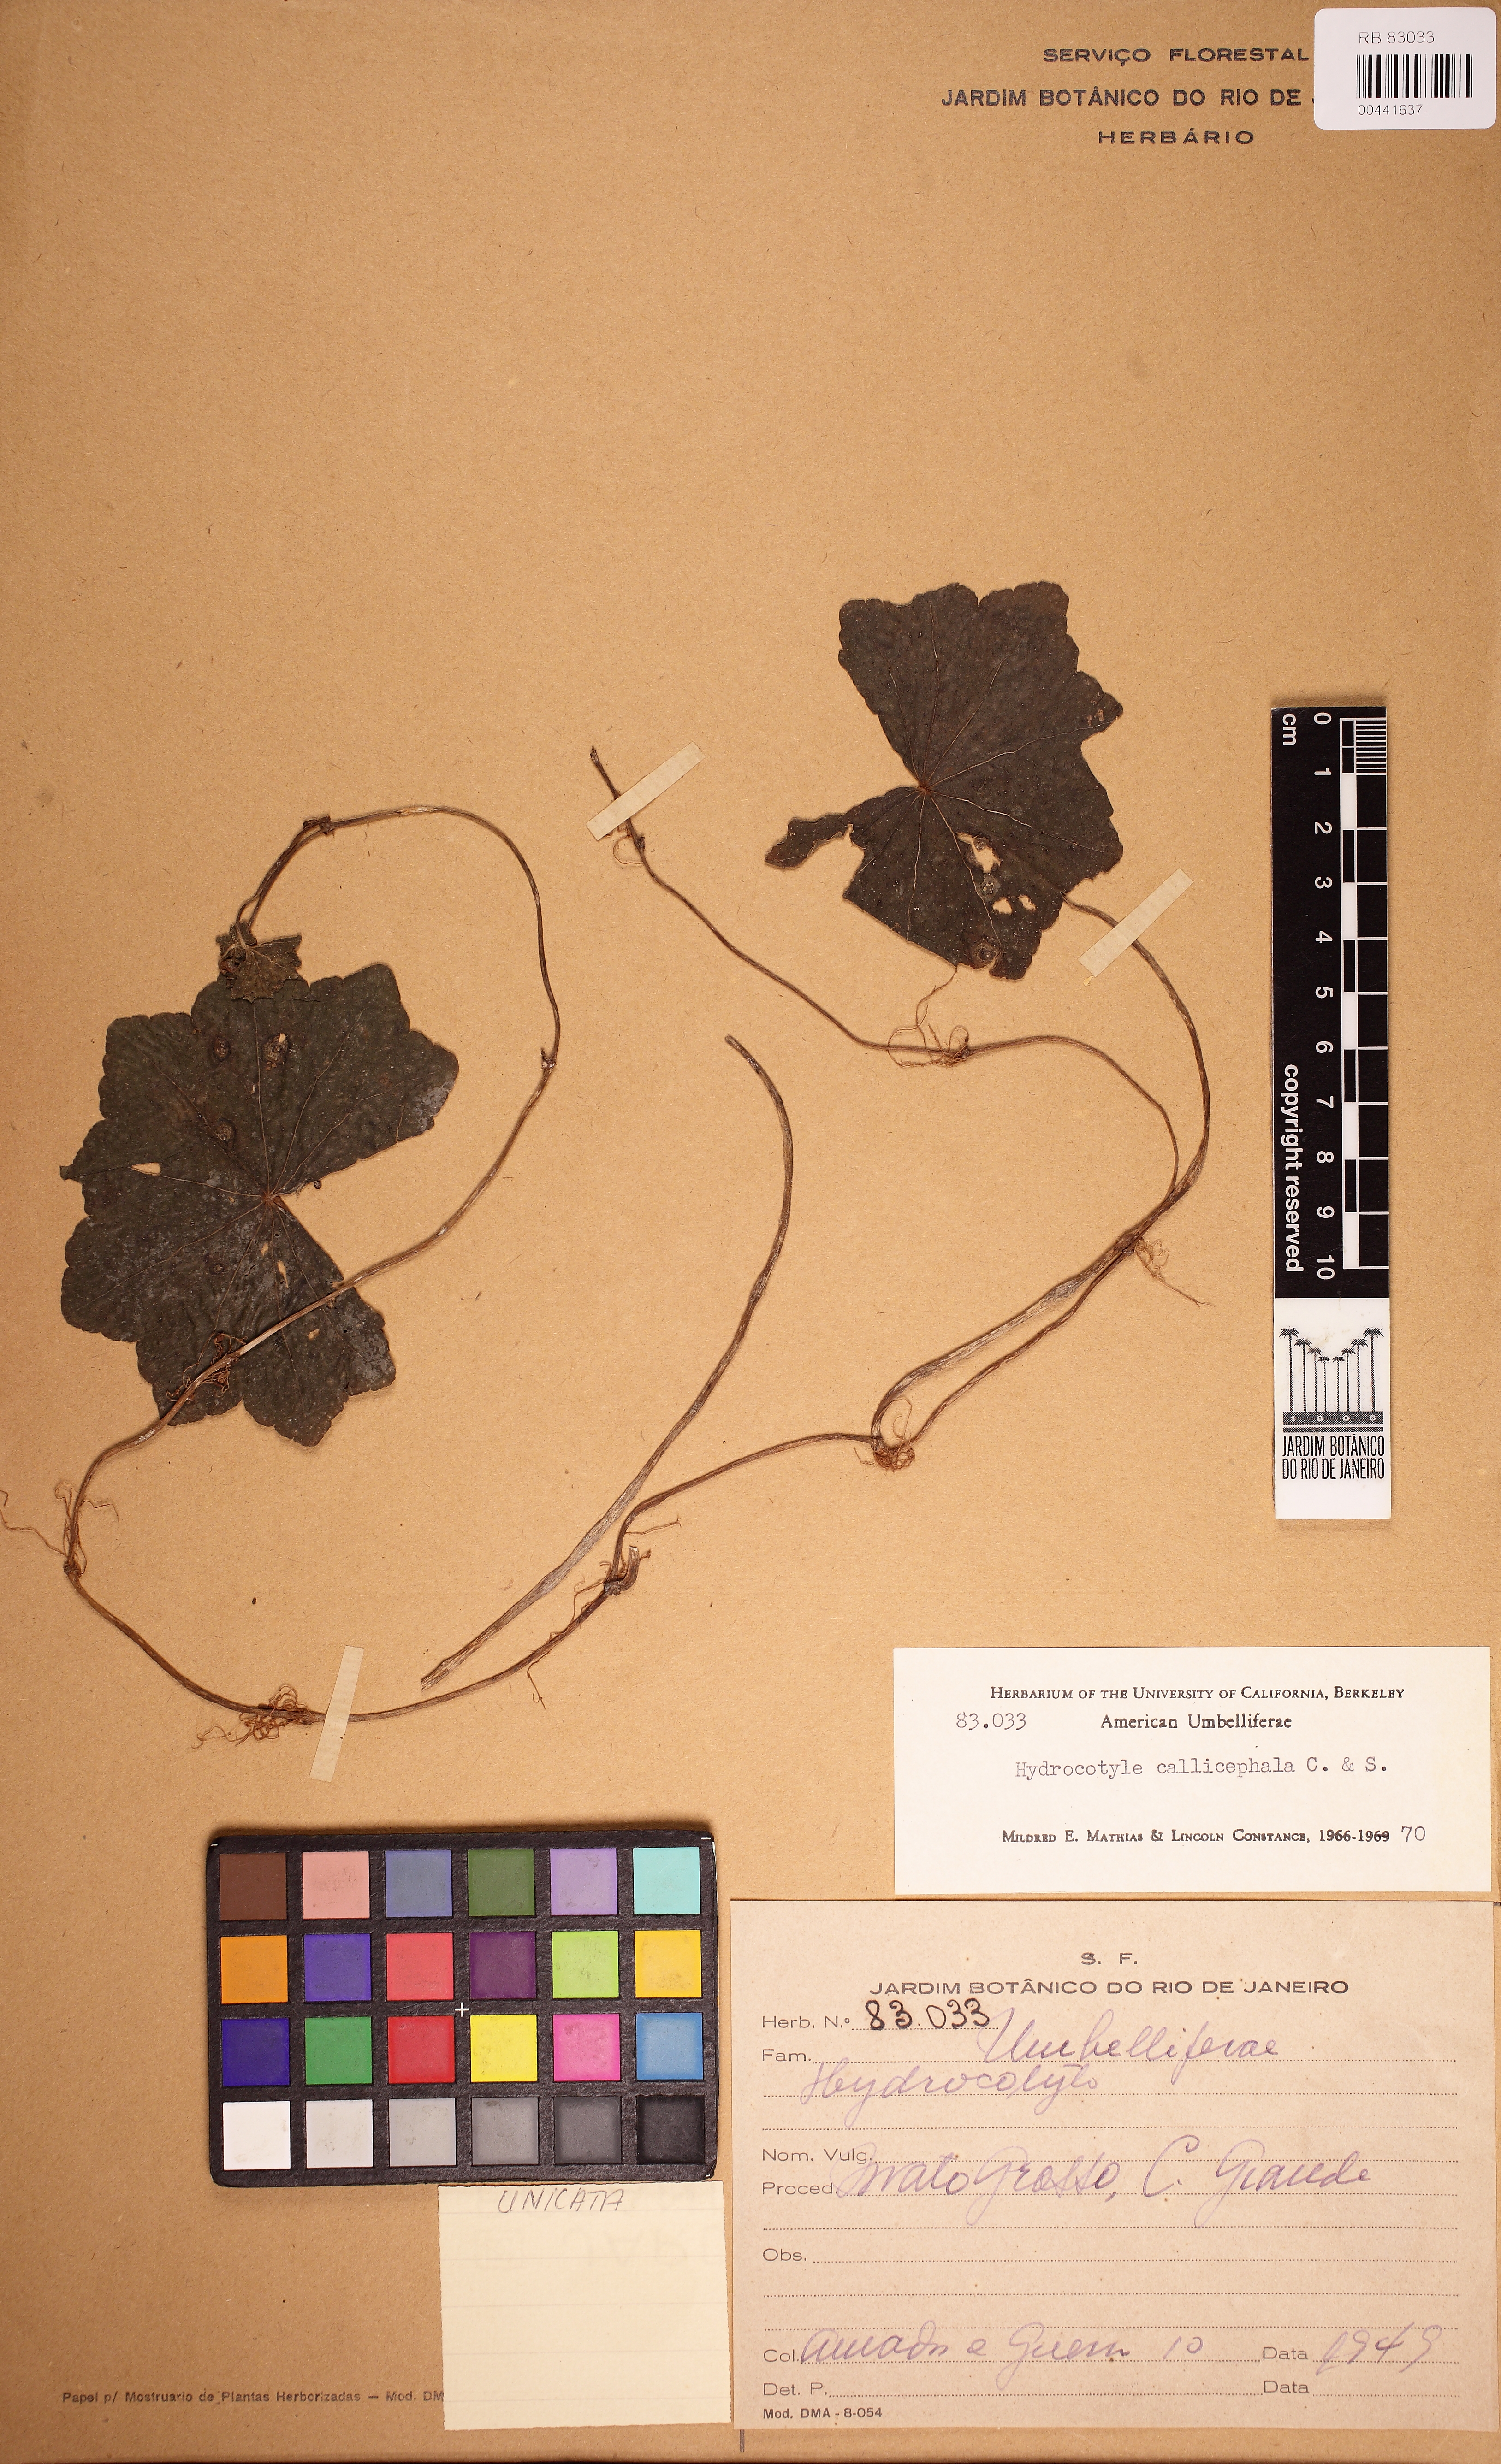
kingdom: Plantae
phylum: Tracheophyta
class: Magnoliopsida
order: Apiales
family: Araliaceae
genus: Hydrocotyle
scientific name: Hydrocotyle callicephala
